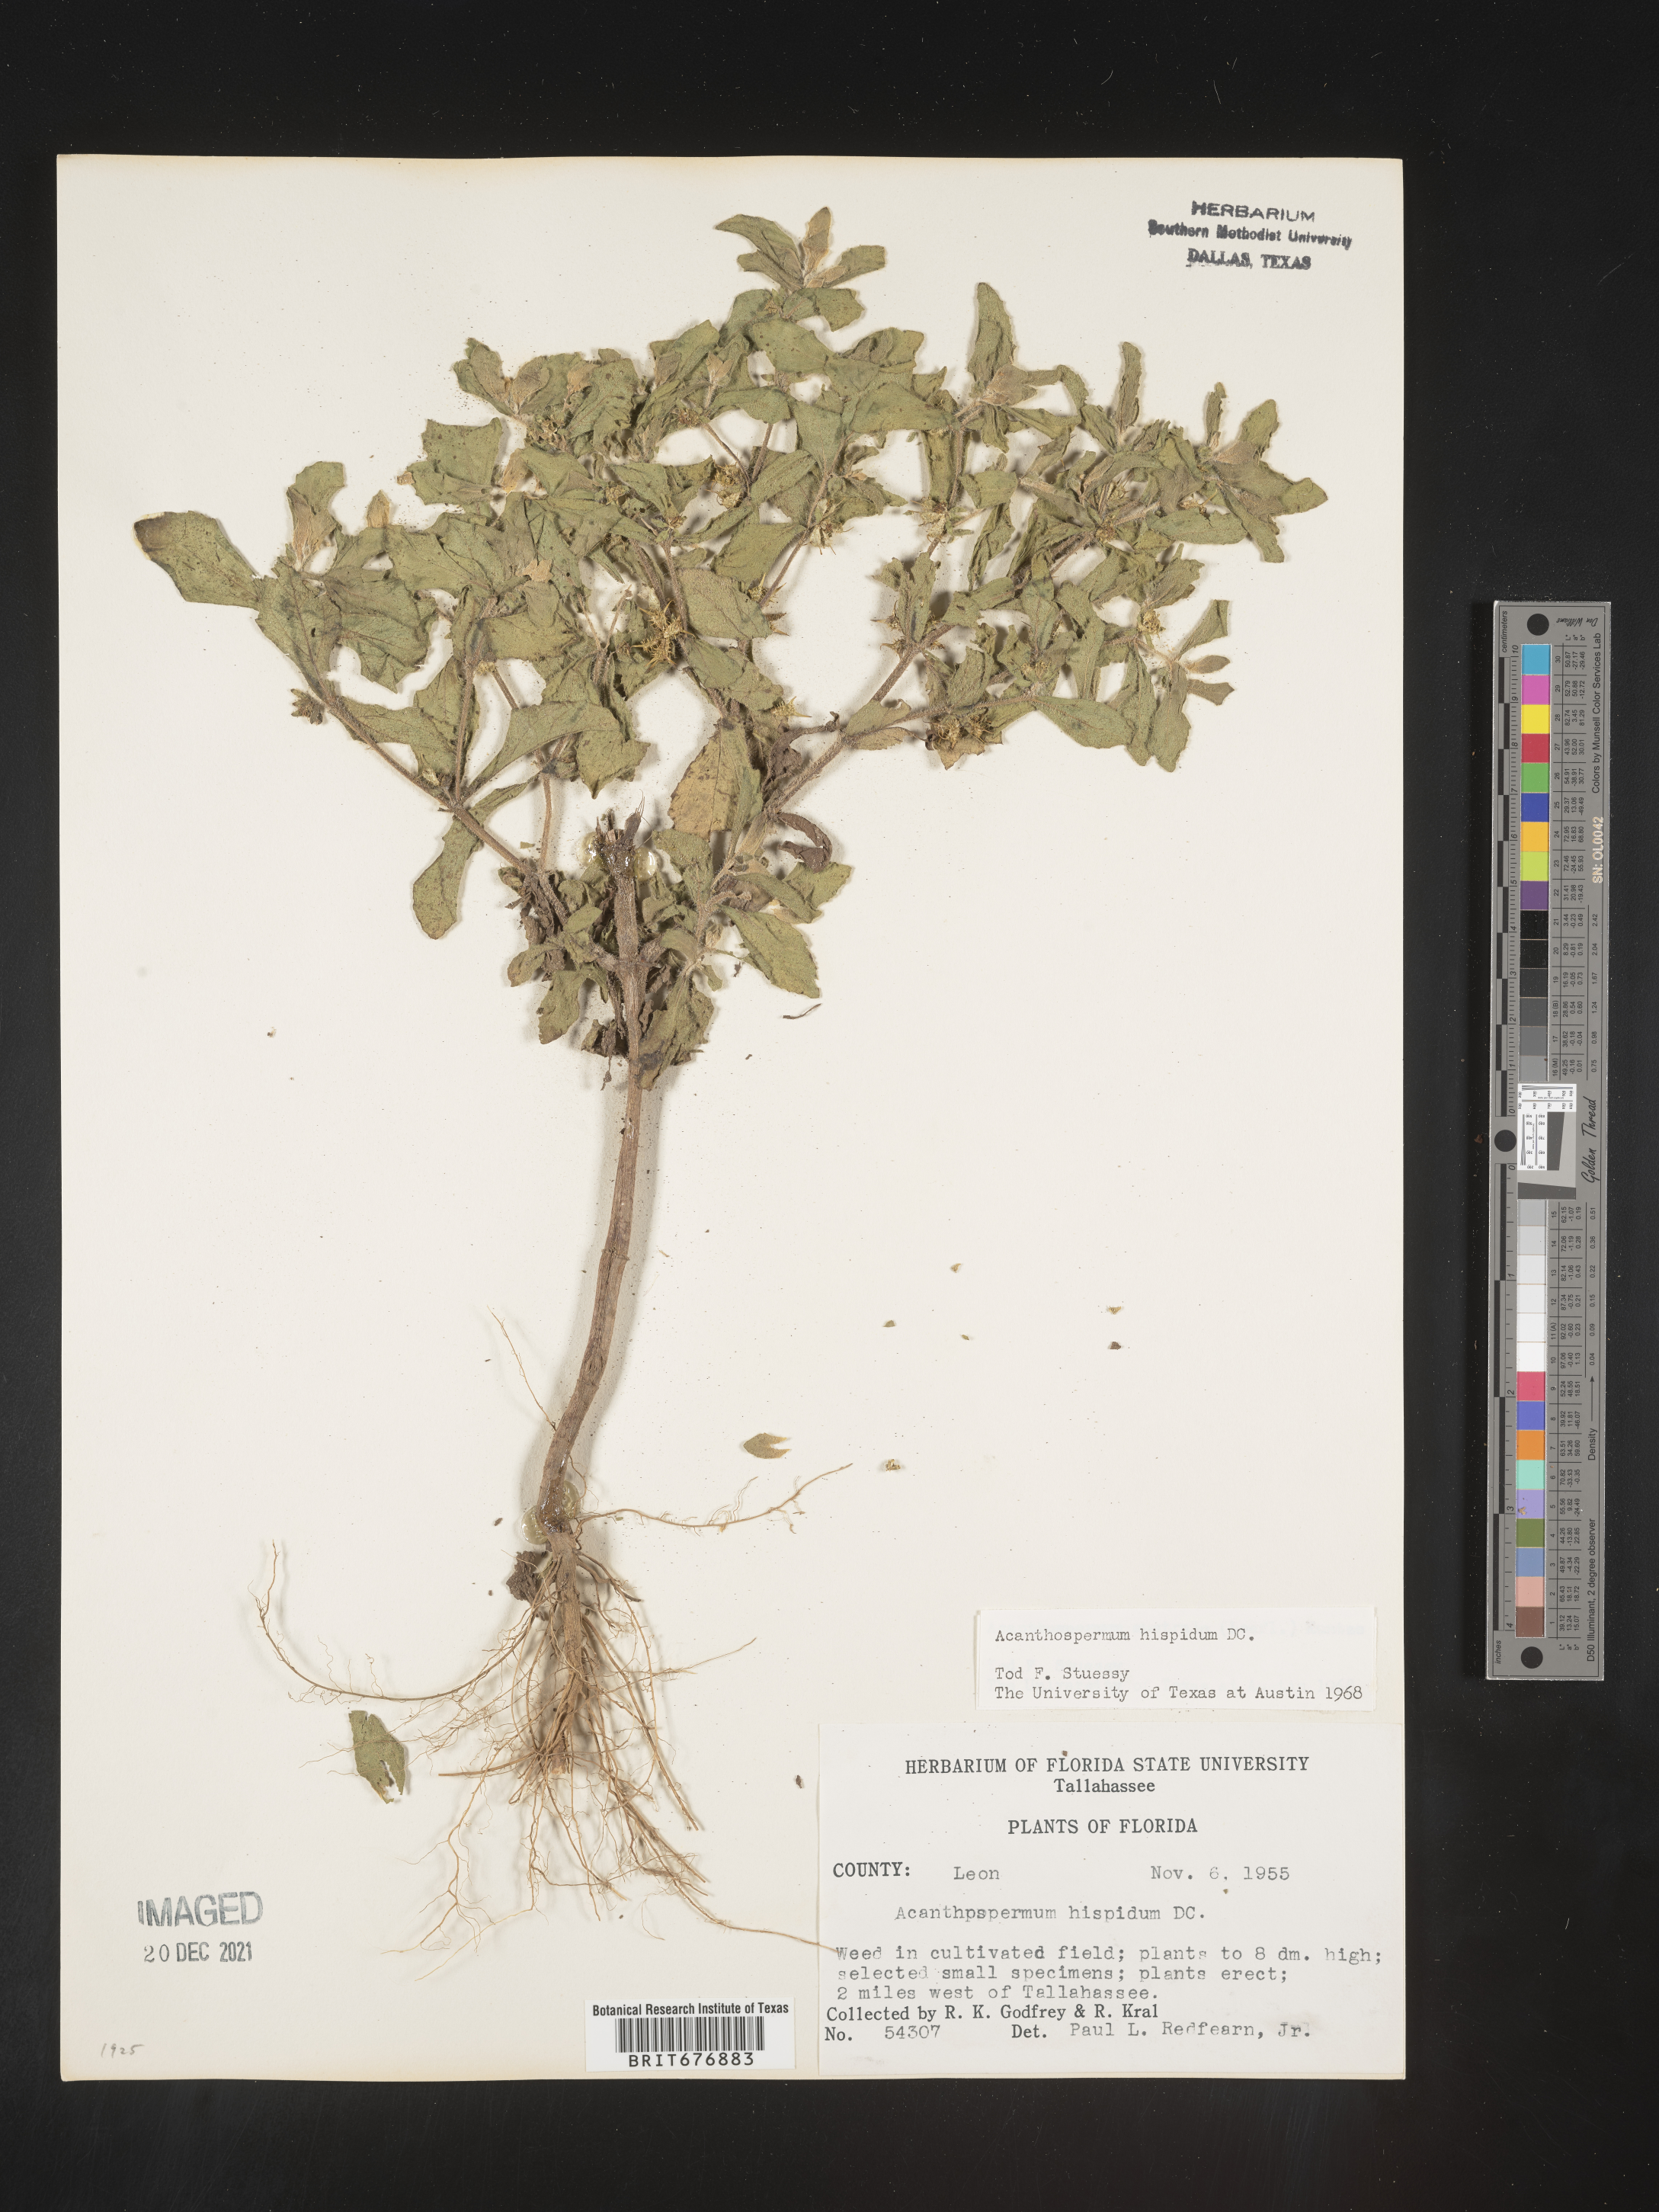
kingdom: Plantae
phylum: Tracheophyta
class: Magnoliopsida
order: Asterales
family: Asteraceae
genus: Acanthospermum
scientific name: Acanthospermum hispidum
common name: Hispid starbur
